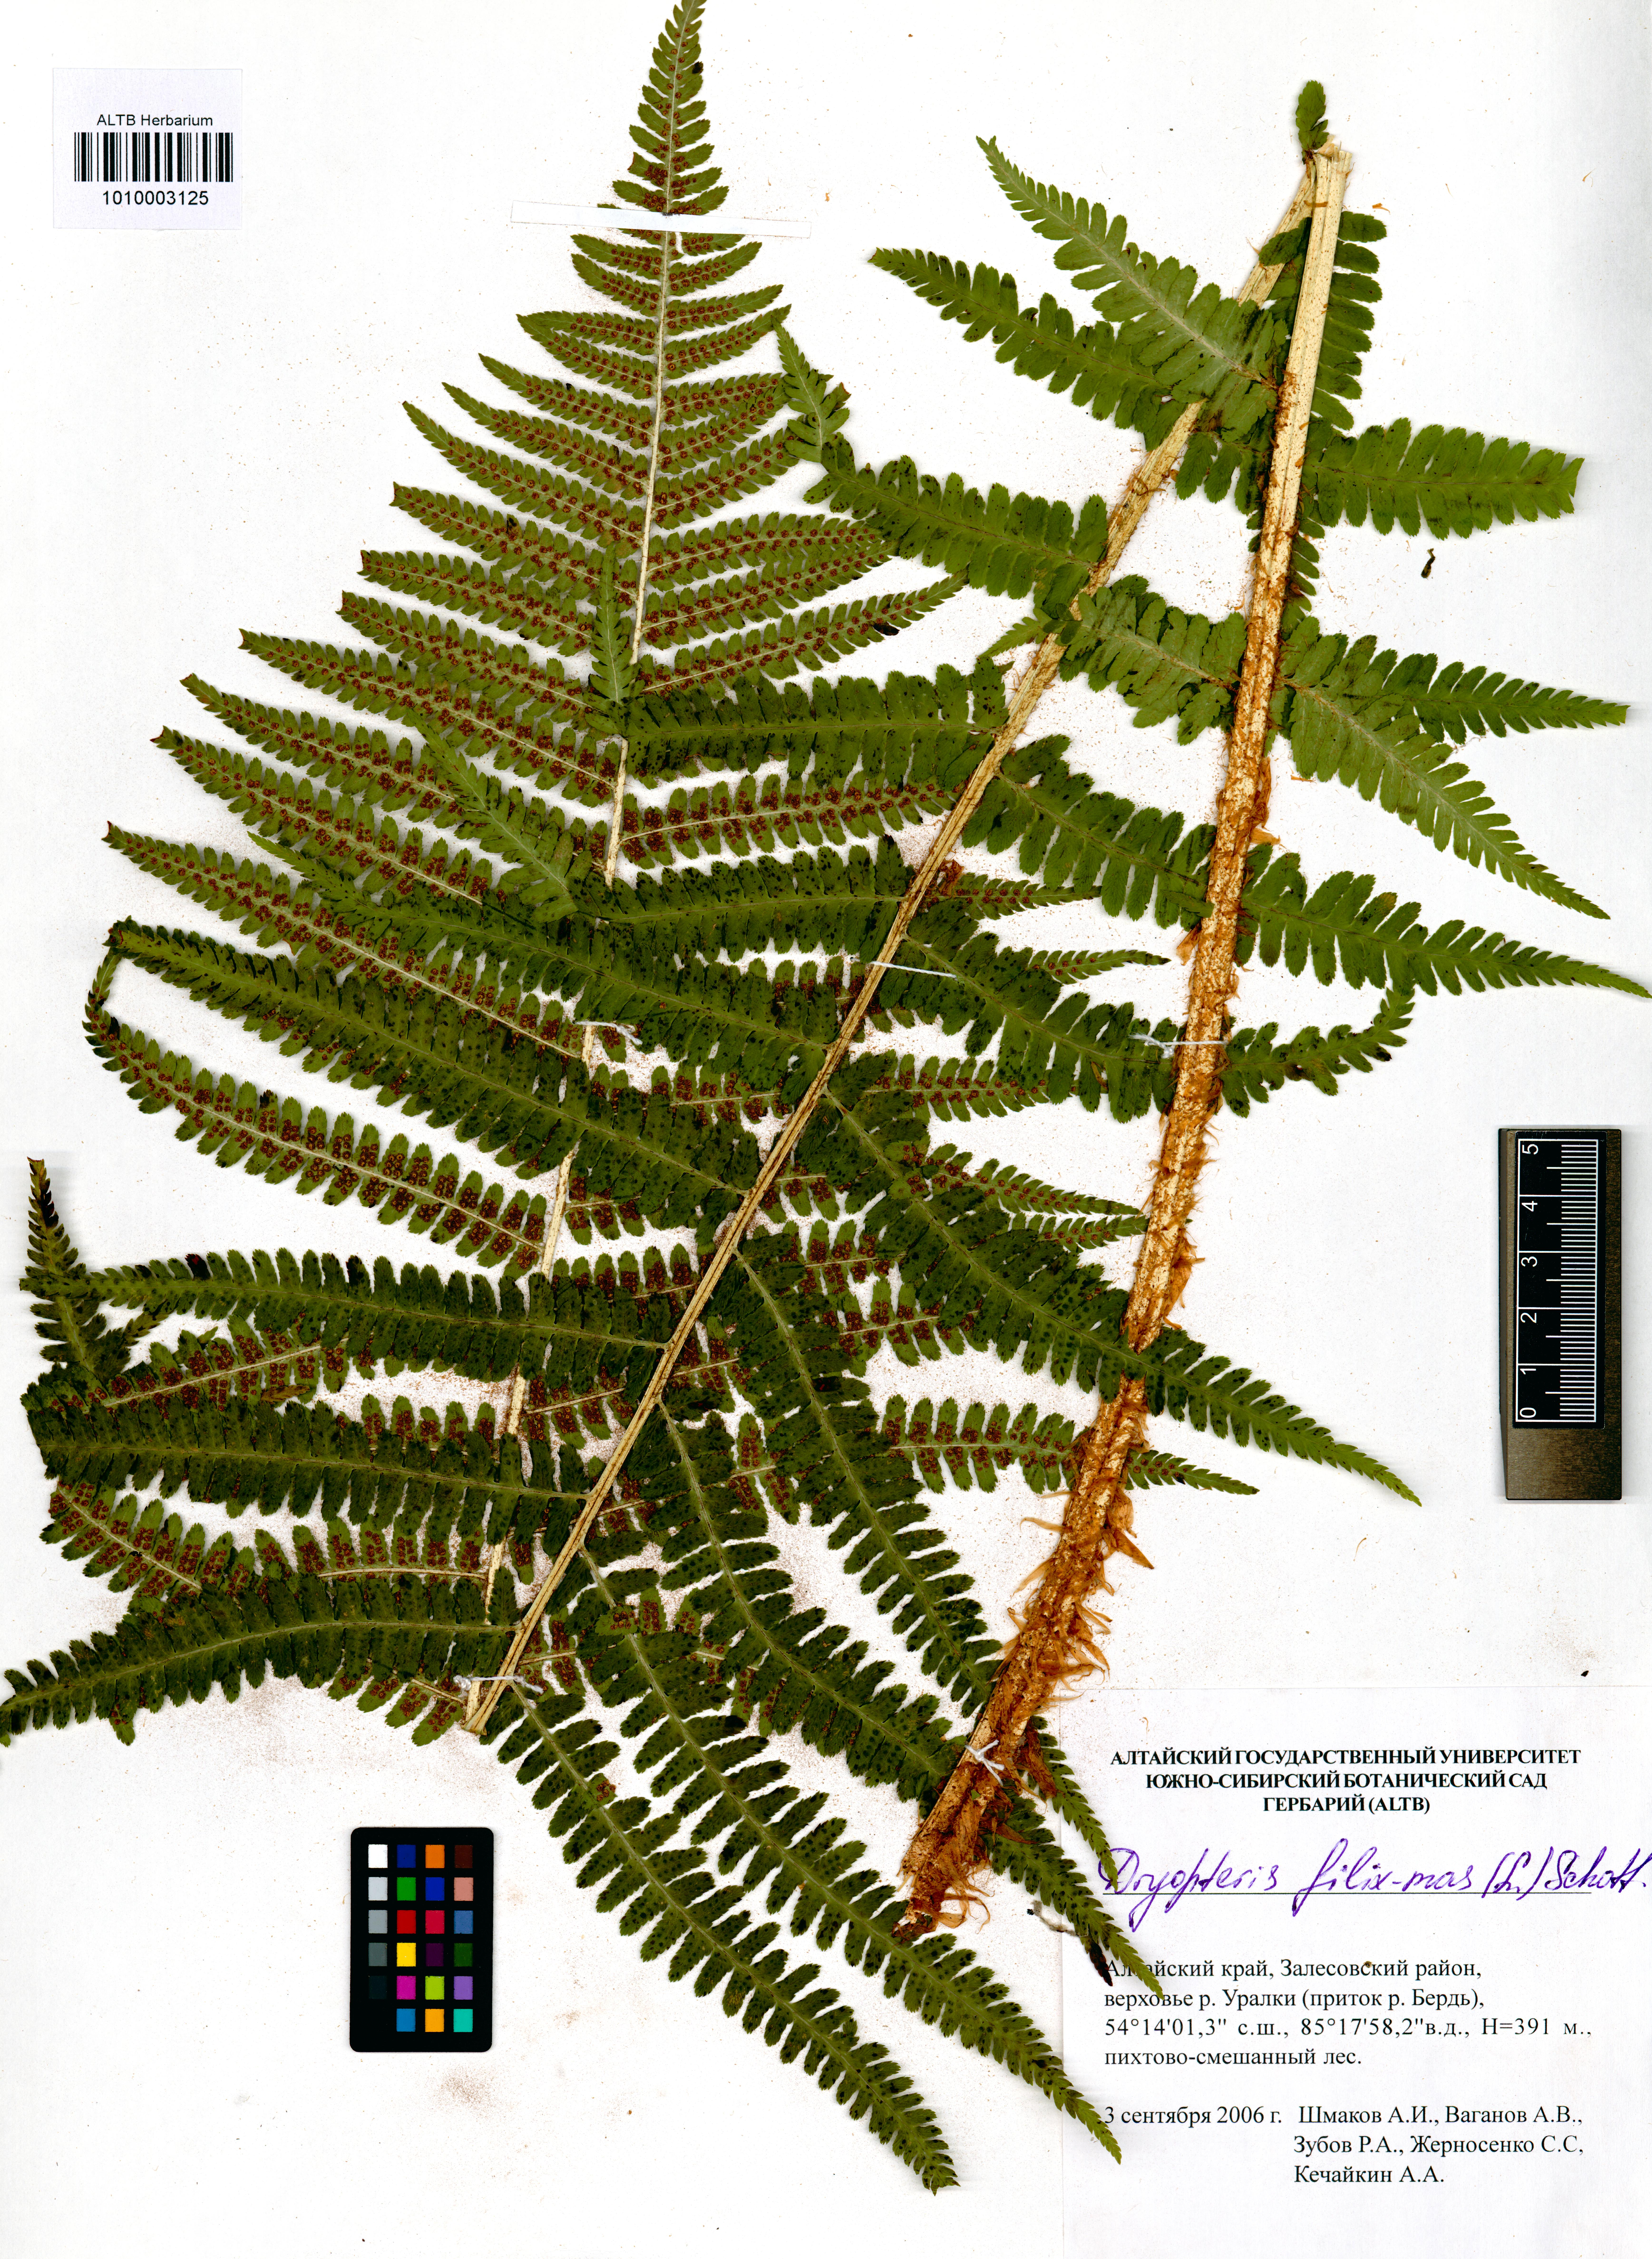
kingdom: Plantae
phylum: Tracheophyta
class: Polypodiopsida
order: Polypodiales
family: Dryopteridaceae
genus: Dryopteris
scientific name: Dryopteris filix-mas
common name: Male fern
